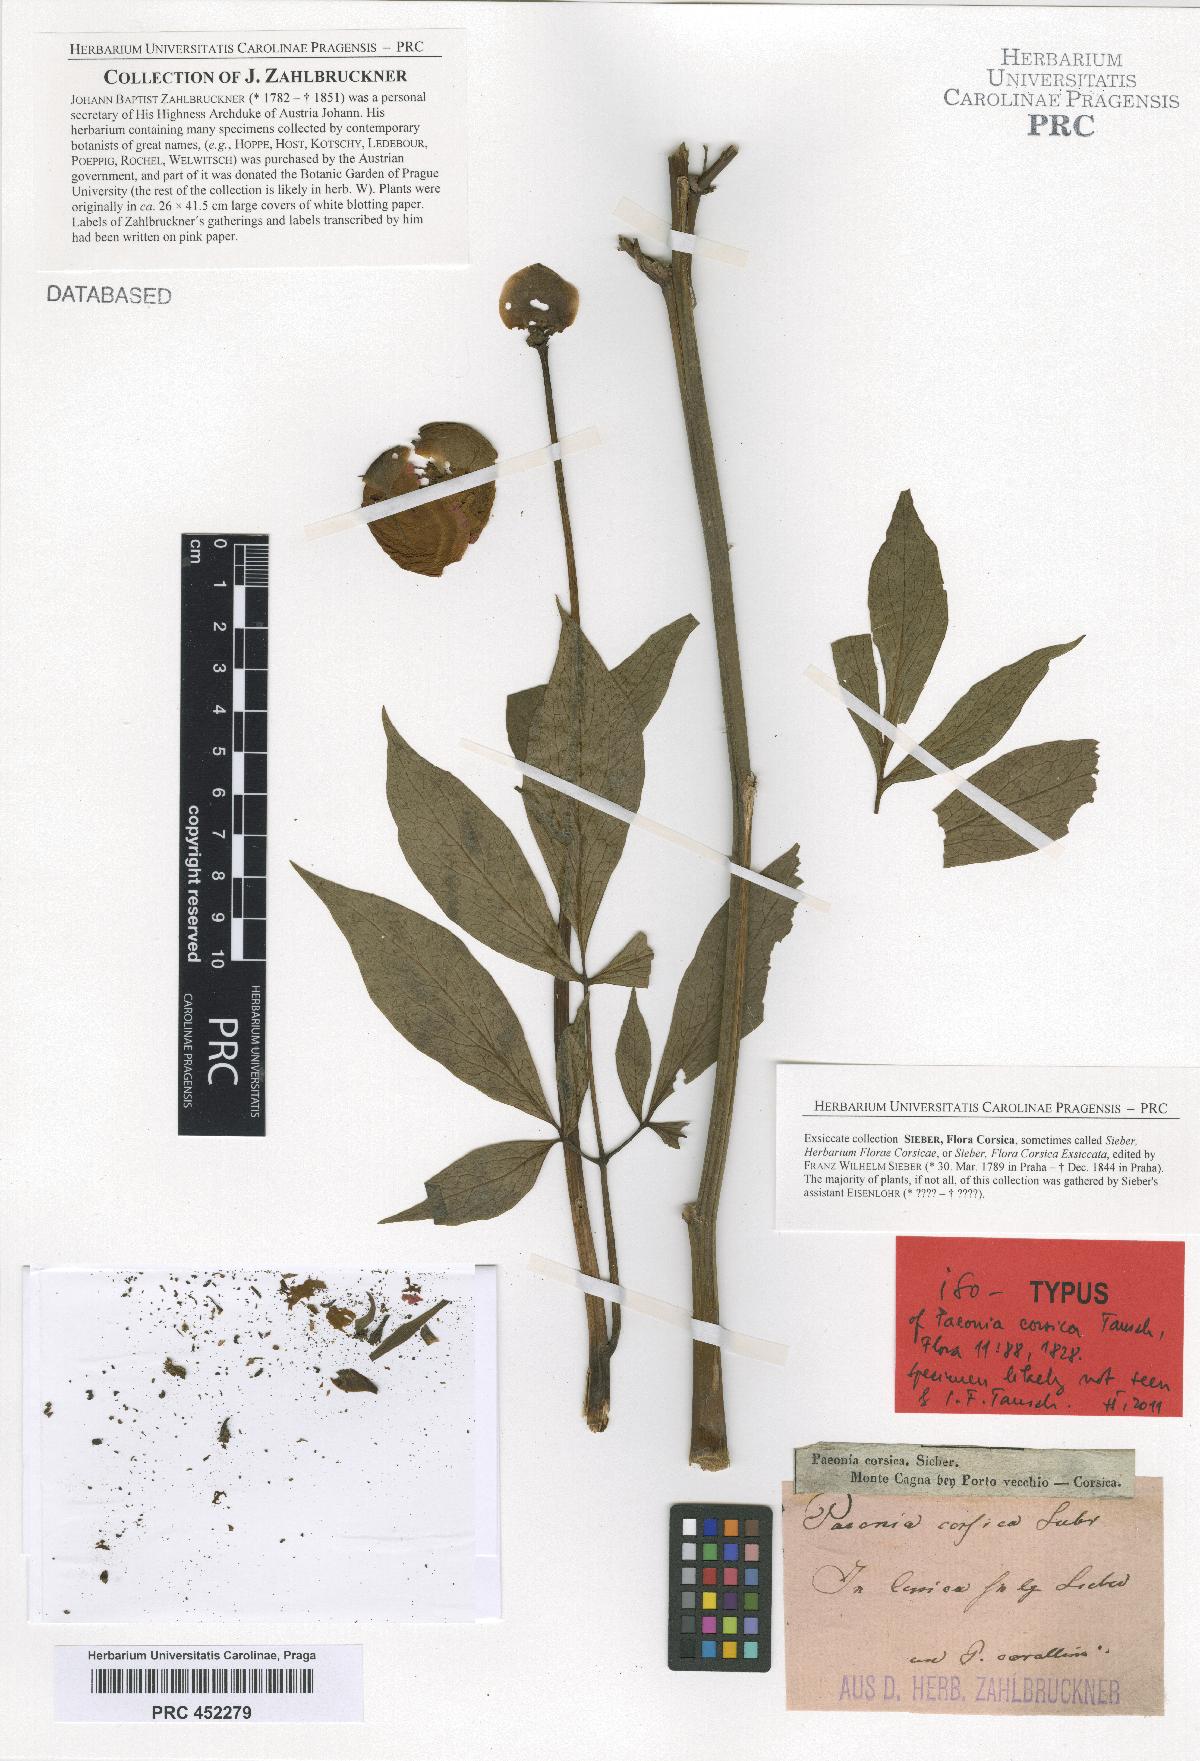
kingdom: Plantae
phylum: Tracheophyta
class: Magnoliopsida
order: Saxifragales
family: Paeoniaceae
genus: Paeonia
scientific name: Paeonia corsica
